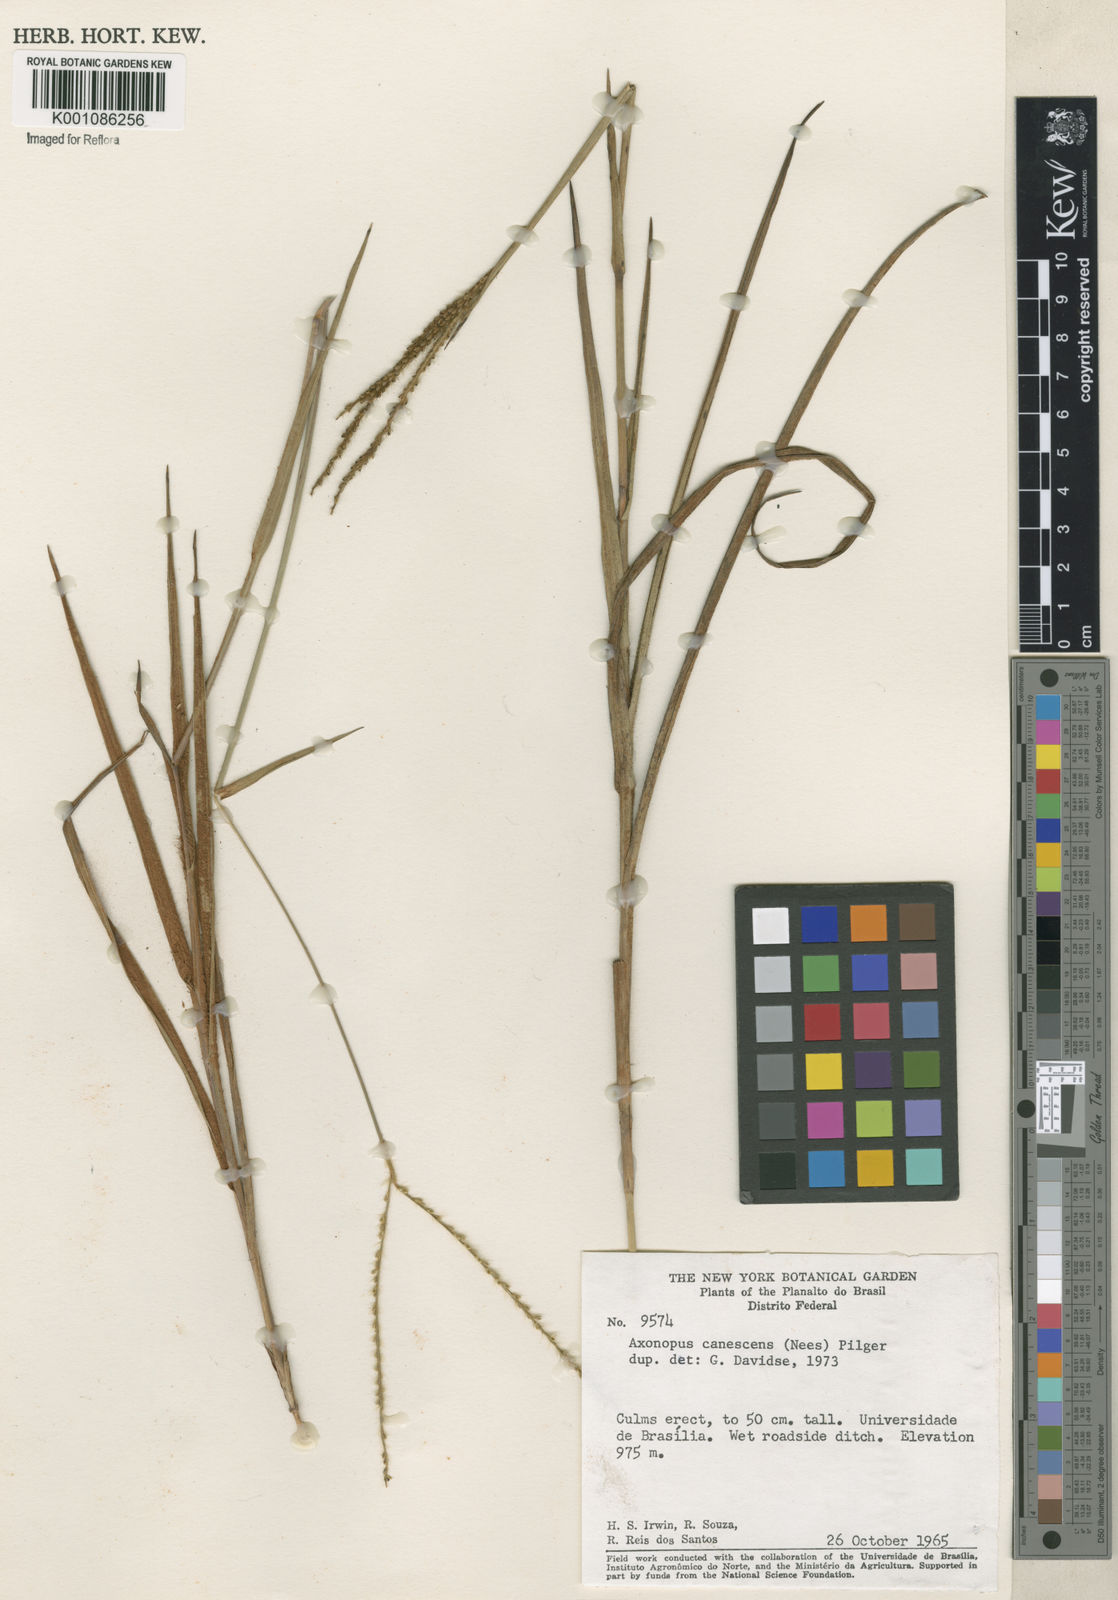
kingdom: Plantae
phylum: Tracheophyta
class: Liliopsida
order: Poales
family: Poaceae
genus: Axonopus
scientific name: Axonopus aureus
